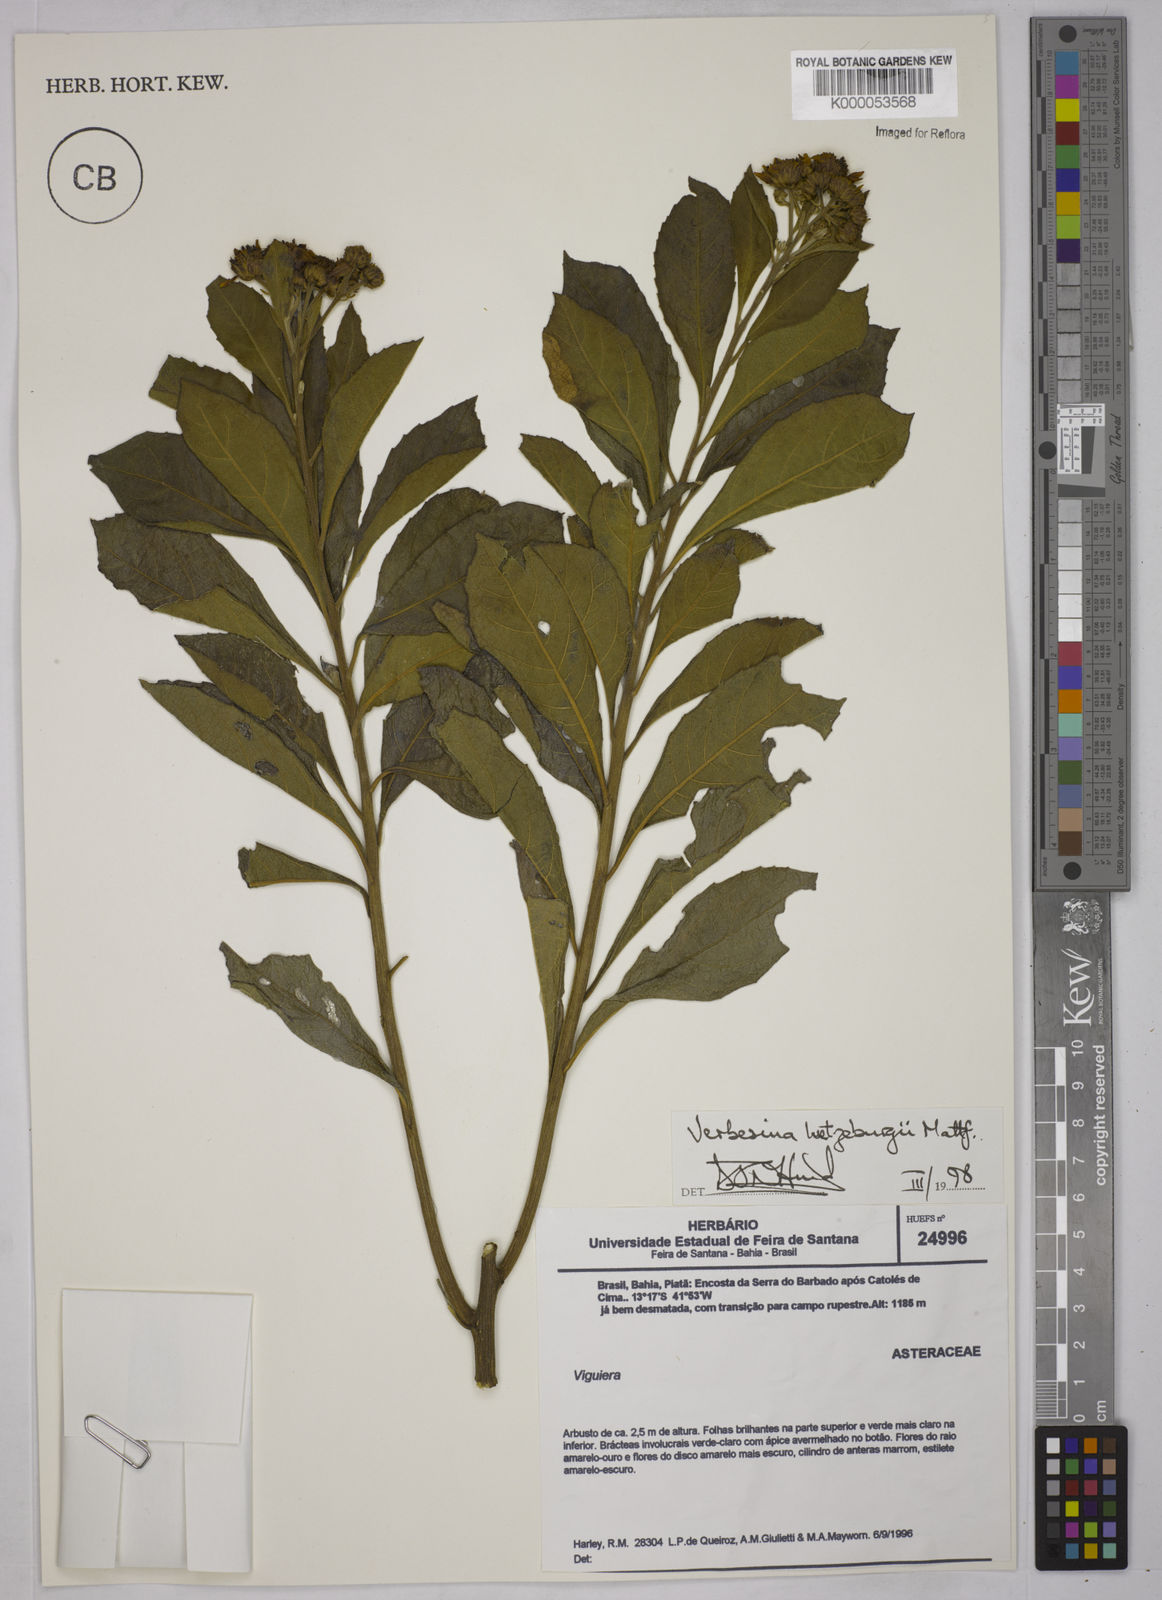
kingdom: Plantae
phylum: Tracheophyta
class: Magnoliopsida
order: Asterales
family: Asteraceae
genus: Verbesina
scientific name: Verbesina luetzelburgii
